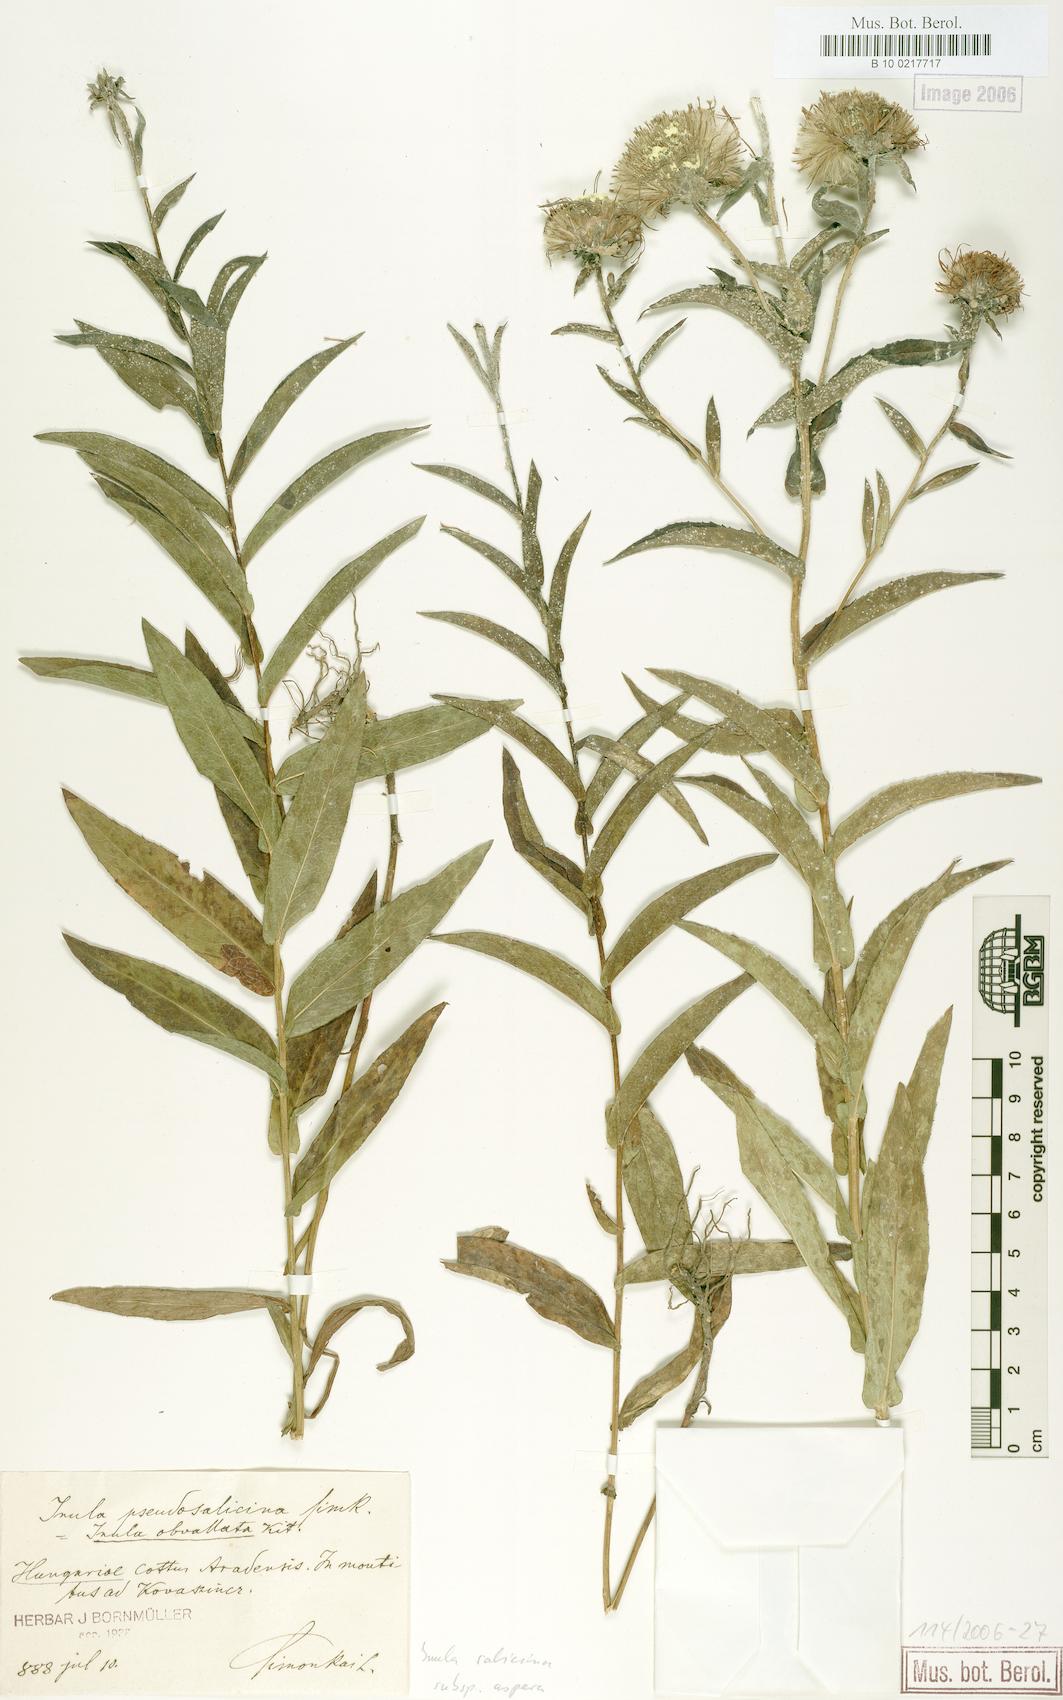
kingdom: Plantae
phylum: Tracheophyta
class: Magnoliopsida
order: Asterales
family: Asteraceae
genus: Pentanema
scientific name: Pentanema salicinum
